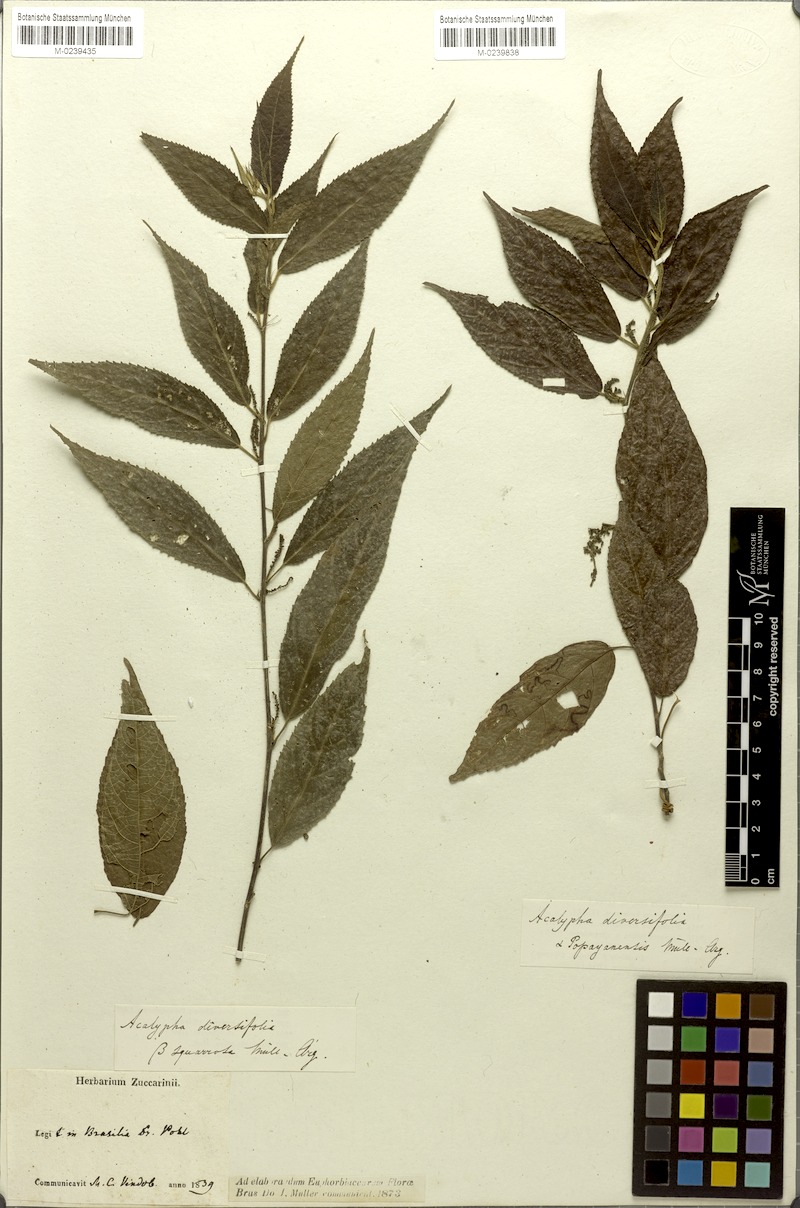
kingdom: Plantae
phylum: Tracheophyta
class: Magnoliopsida
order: Malpighiales
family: Euphorbiaceae
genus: Acalypha
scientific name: Acalypha diversifolia
